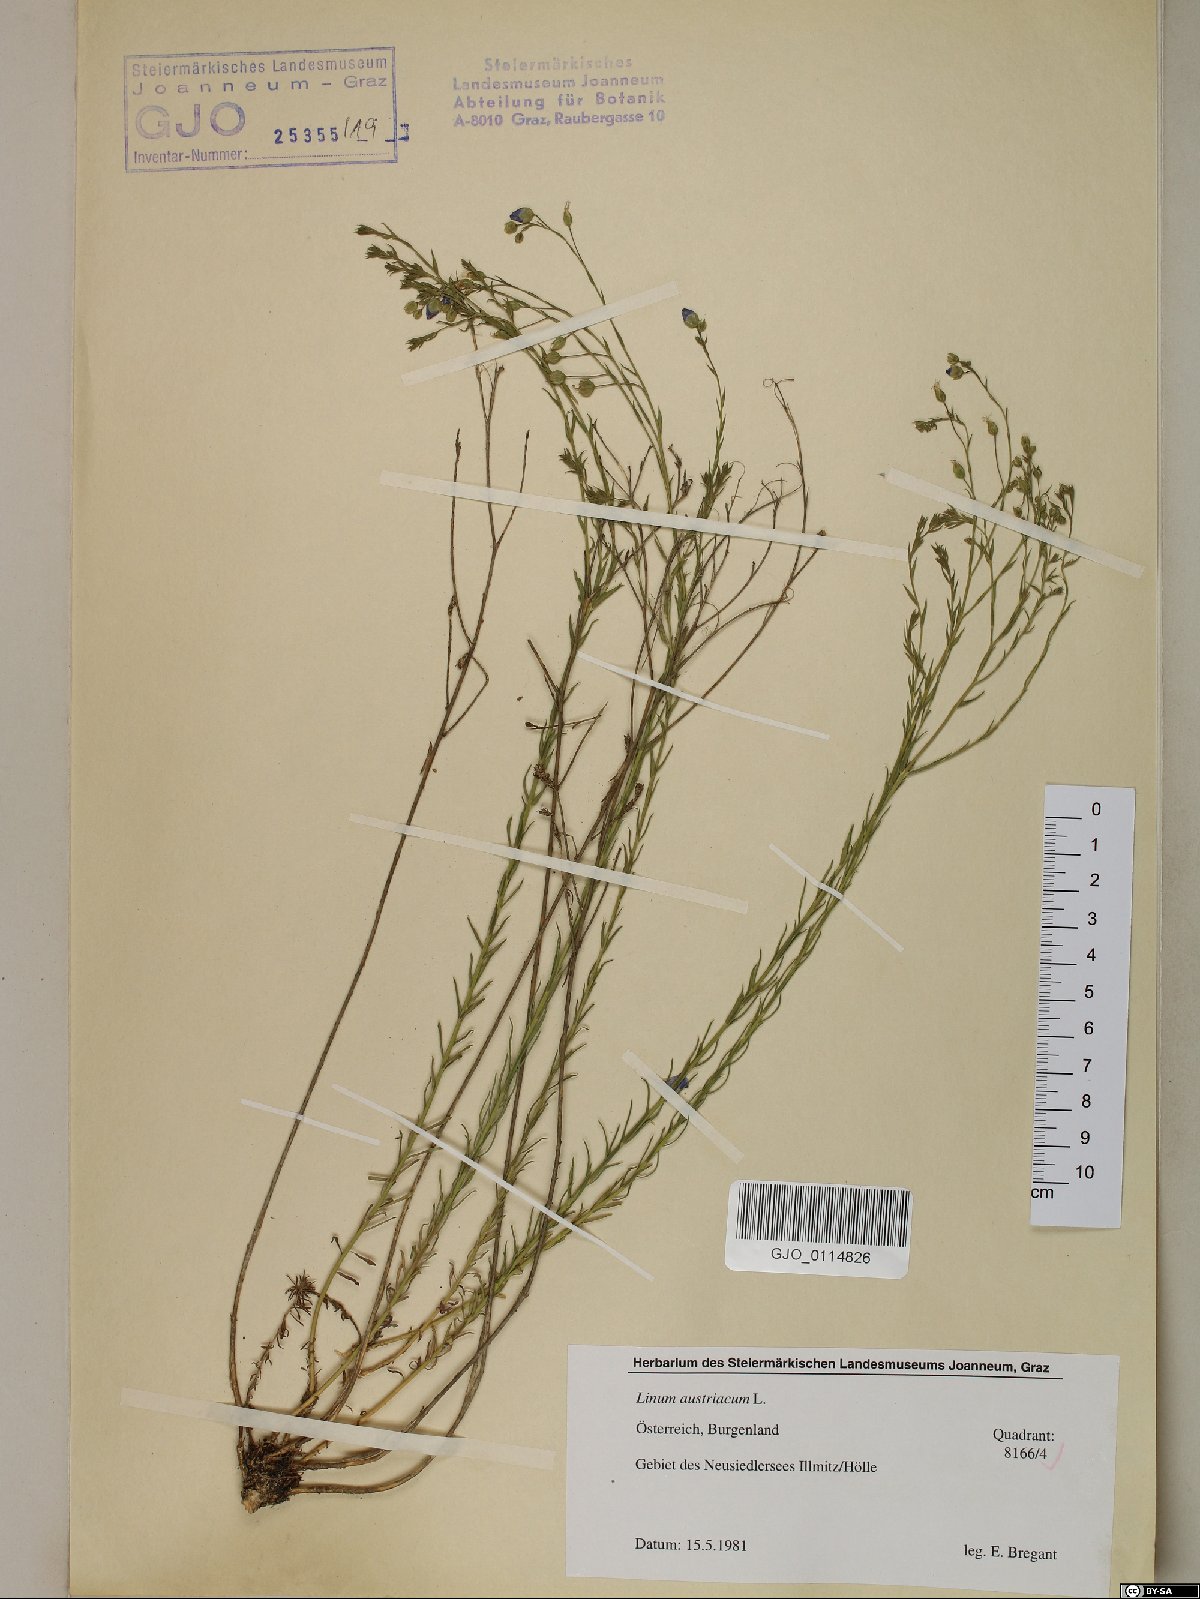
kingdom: Plantae
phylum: Tracheophyta
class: Magnoliopsida
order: Malpighiales
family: Linaceae
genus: Linum
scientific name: Linum austriacum
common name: Austrian flax
